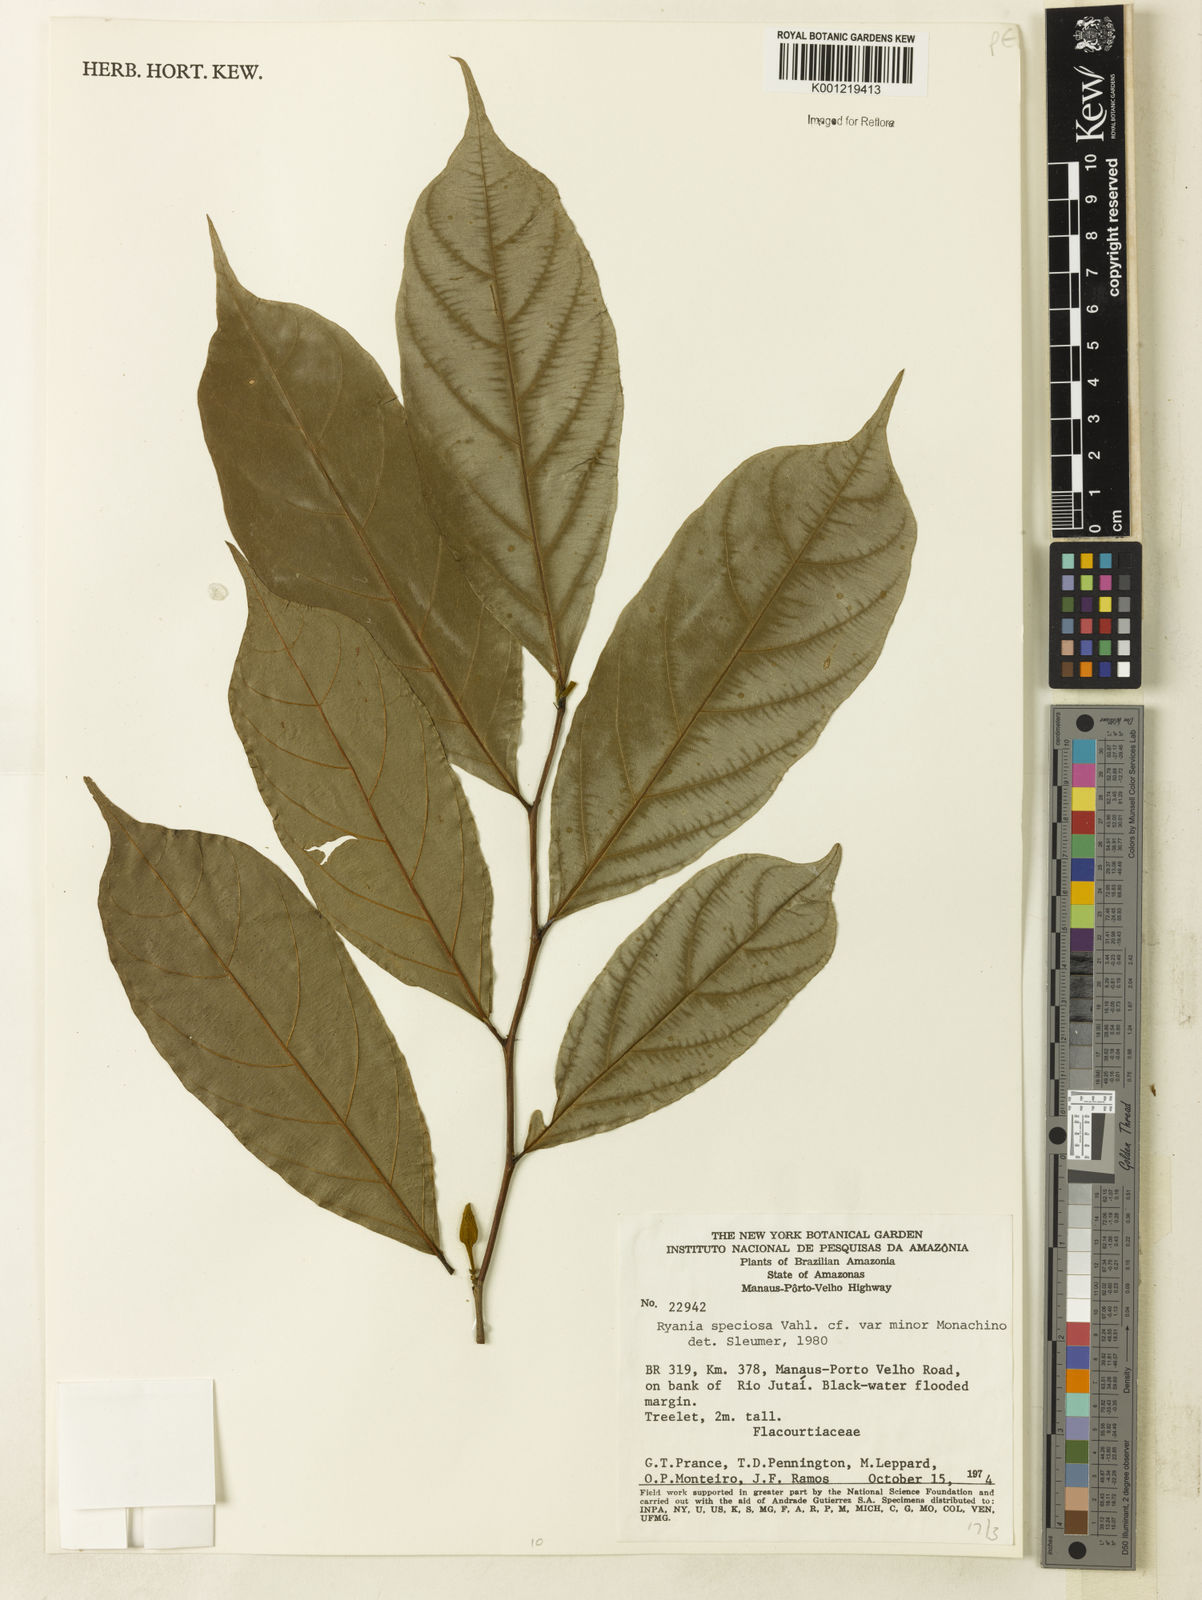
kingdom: Plantae
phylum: Tracheophyta
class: Magnoliopsida
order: Malpighiales
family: Salicaceae
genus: Ryania
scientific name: Ryania speciosa
